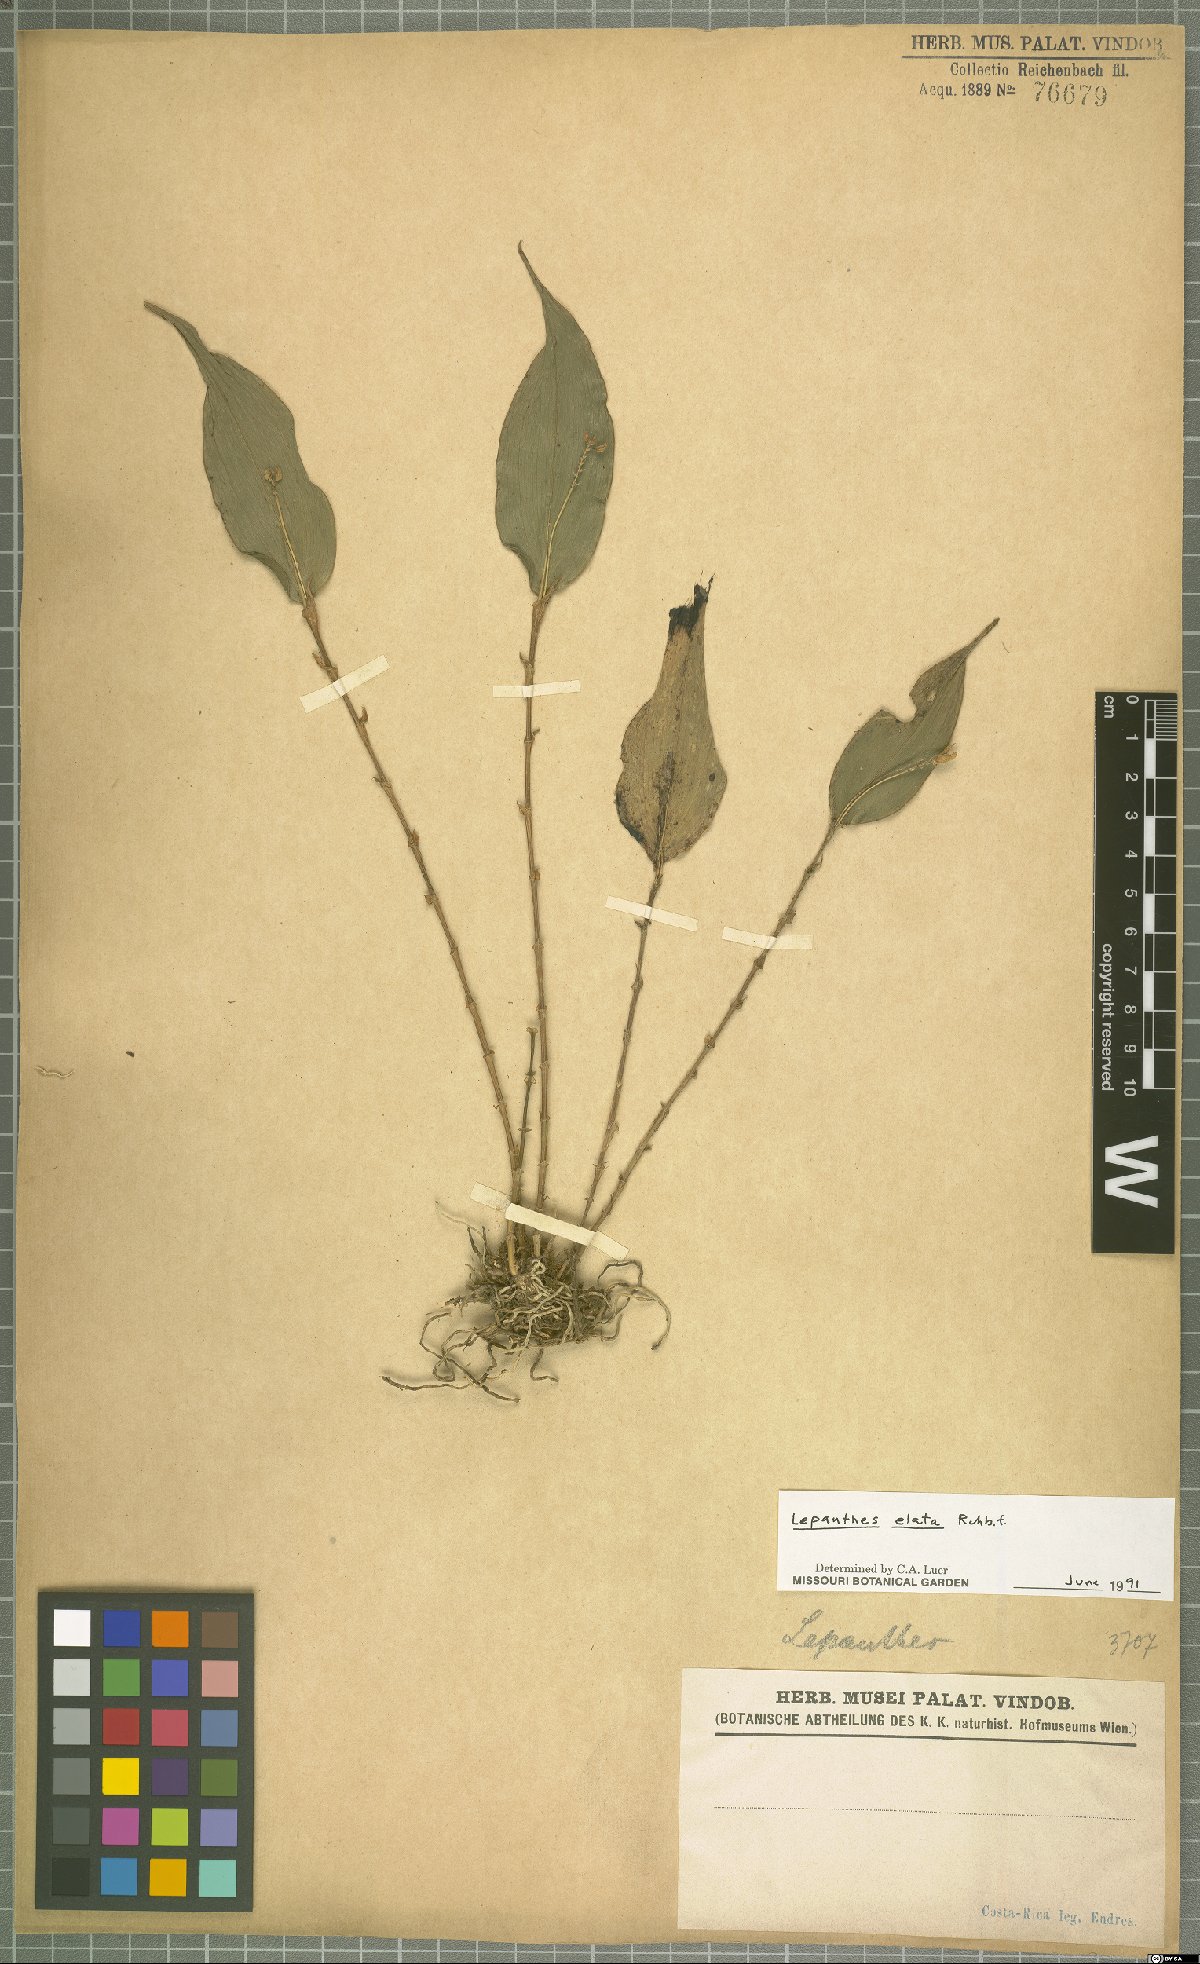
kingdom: Plantae
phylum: Tracheophyta
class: Liliopsida
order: Asparagales
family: Orchidaceae
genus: Lepanthes
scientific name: Lepanthes elata
